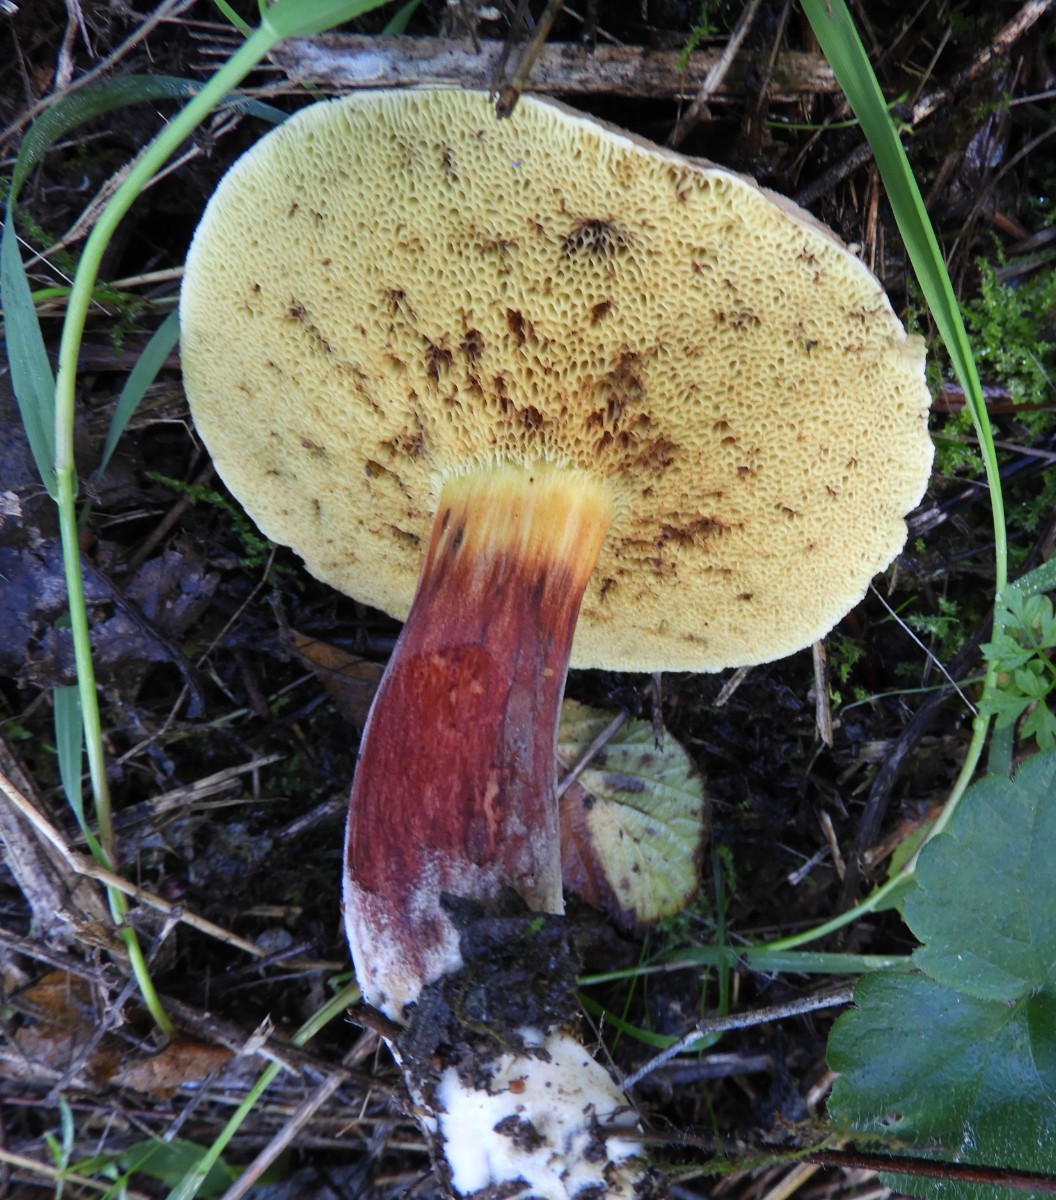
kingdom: Fungi
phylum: Basidiomycota
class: Agaricomycetes
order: Boletales
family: Boletaceae
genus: Xerocomellus
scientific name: Xerocomellus pruinatus
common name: dugget rørhat
